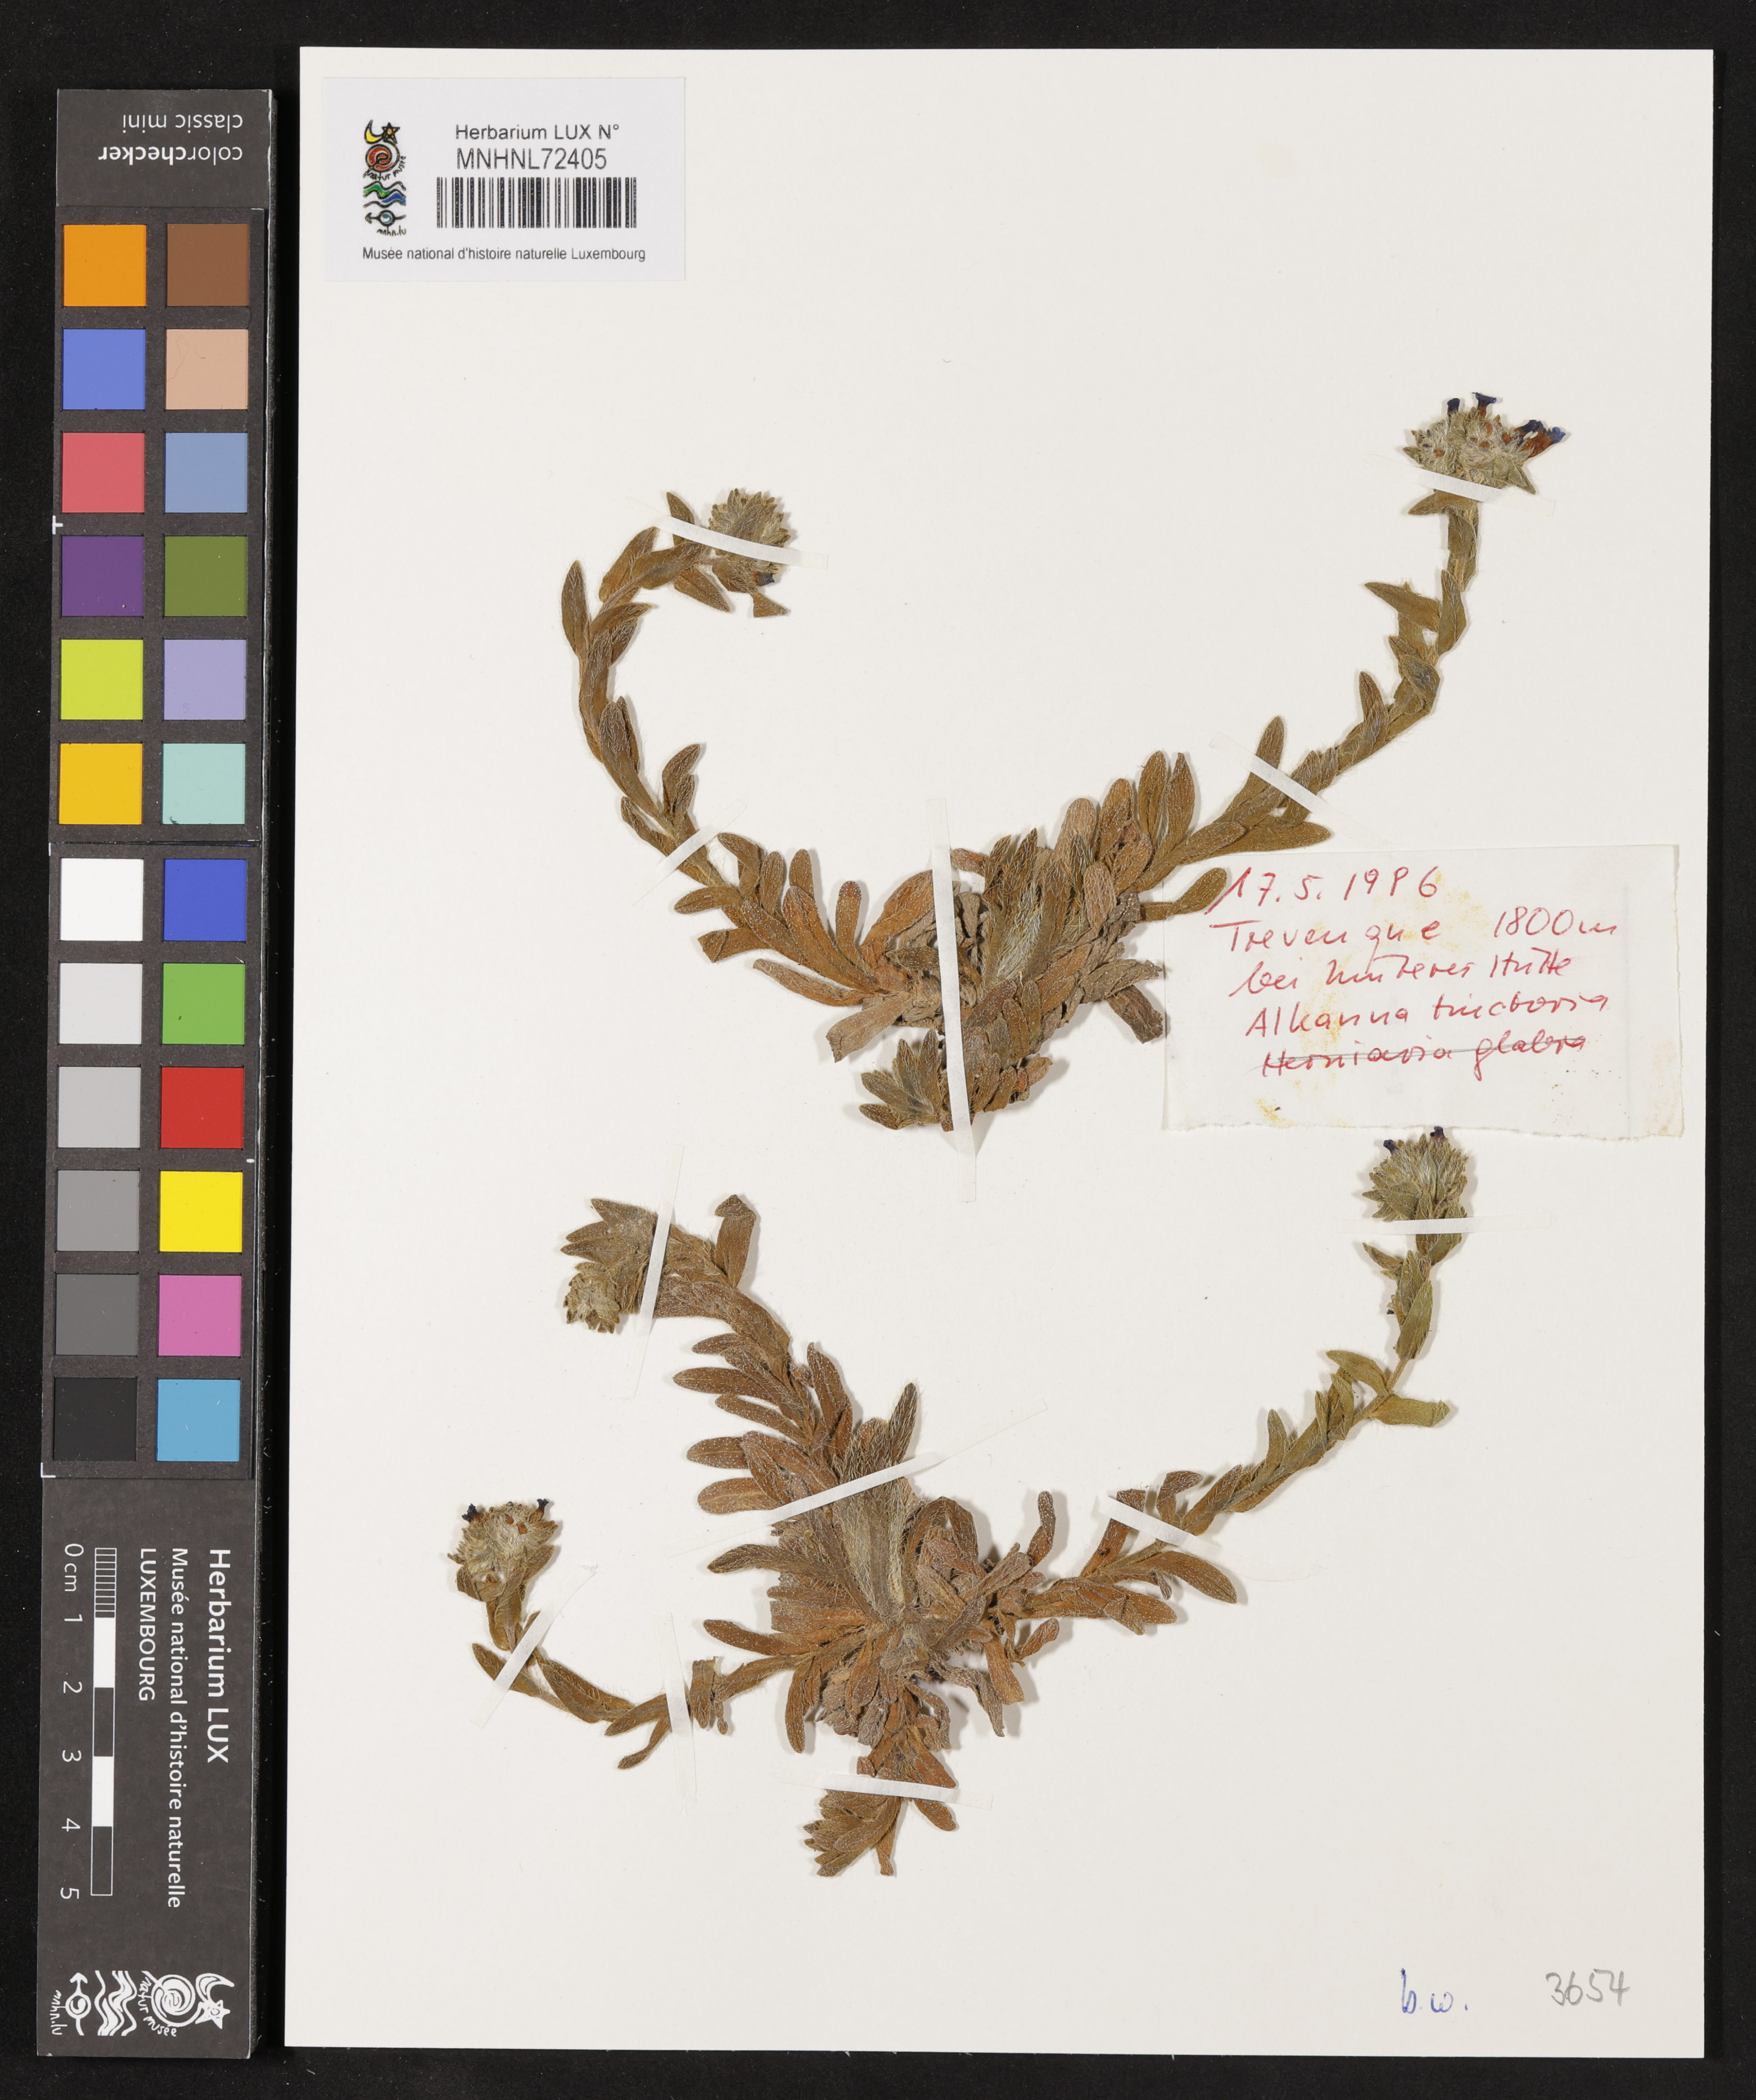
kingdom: Plantae
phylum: Tracheophyta
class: Magnoliopsida
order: Boraginales
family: Boraginaceae
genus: Alkanna
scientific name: Alkanna tinctoria
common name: Dyer's-alkanet
